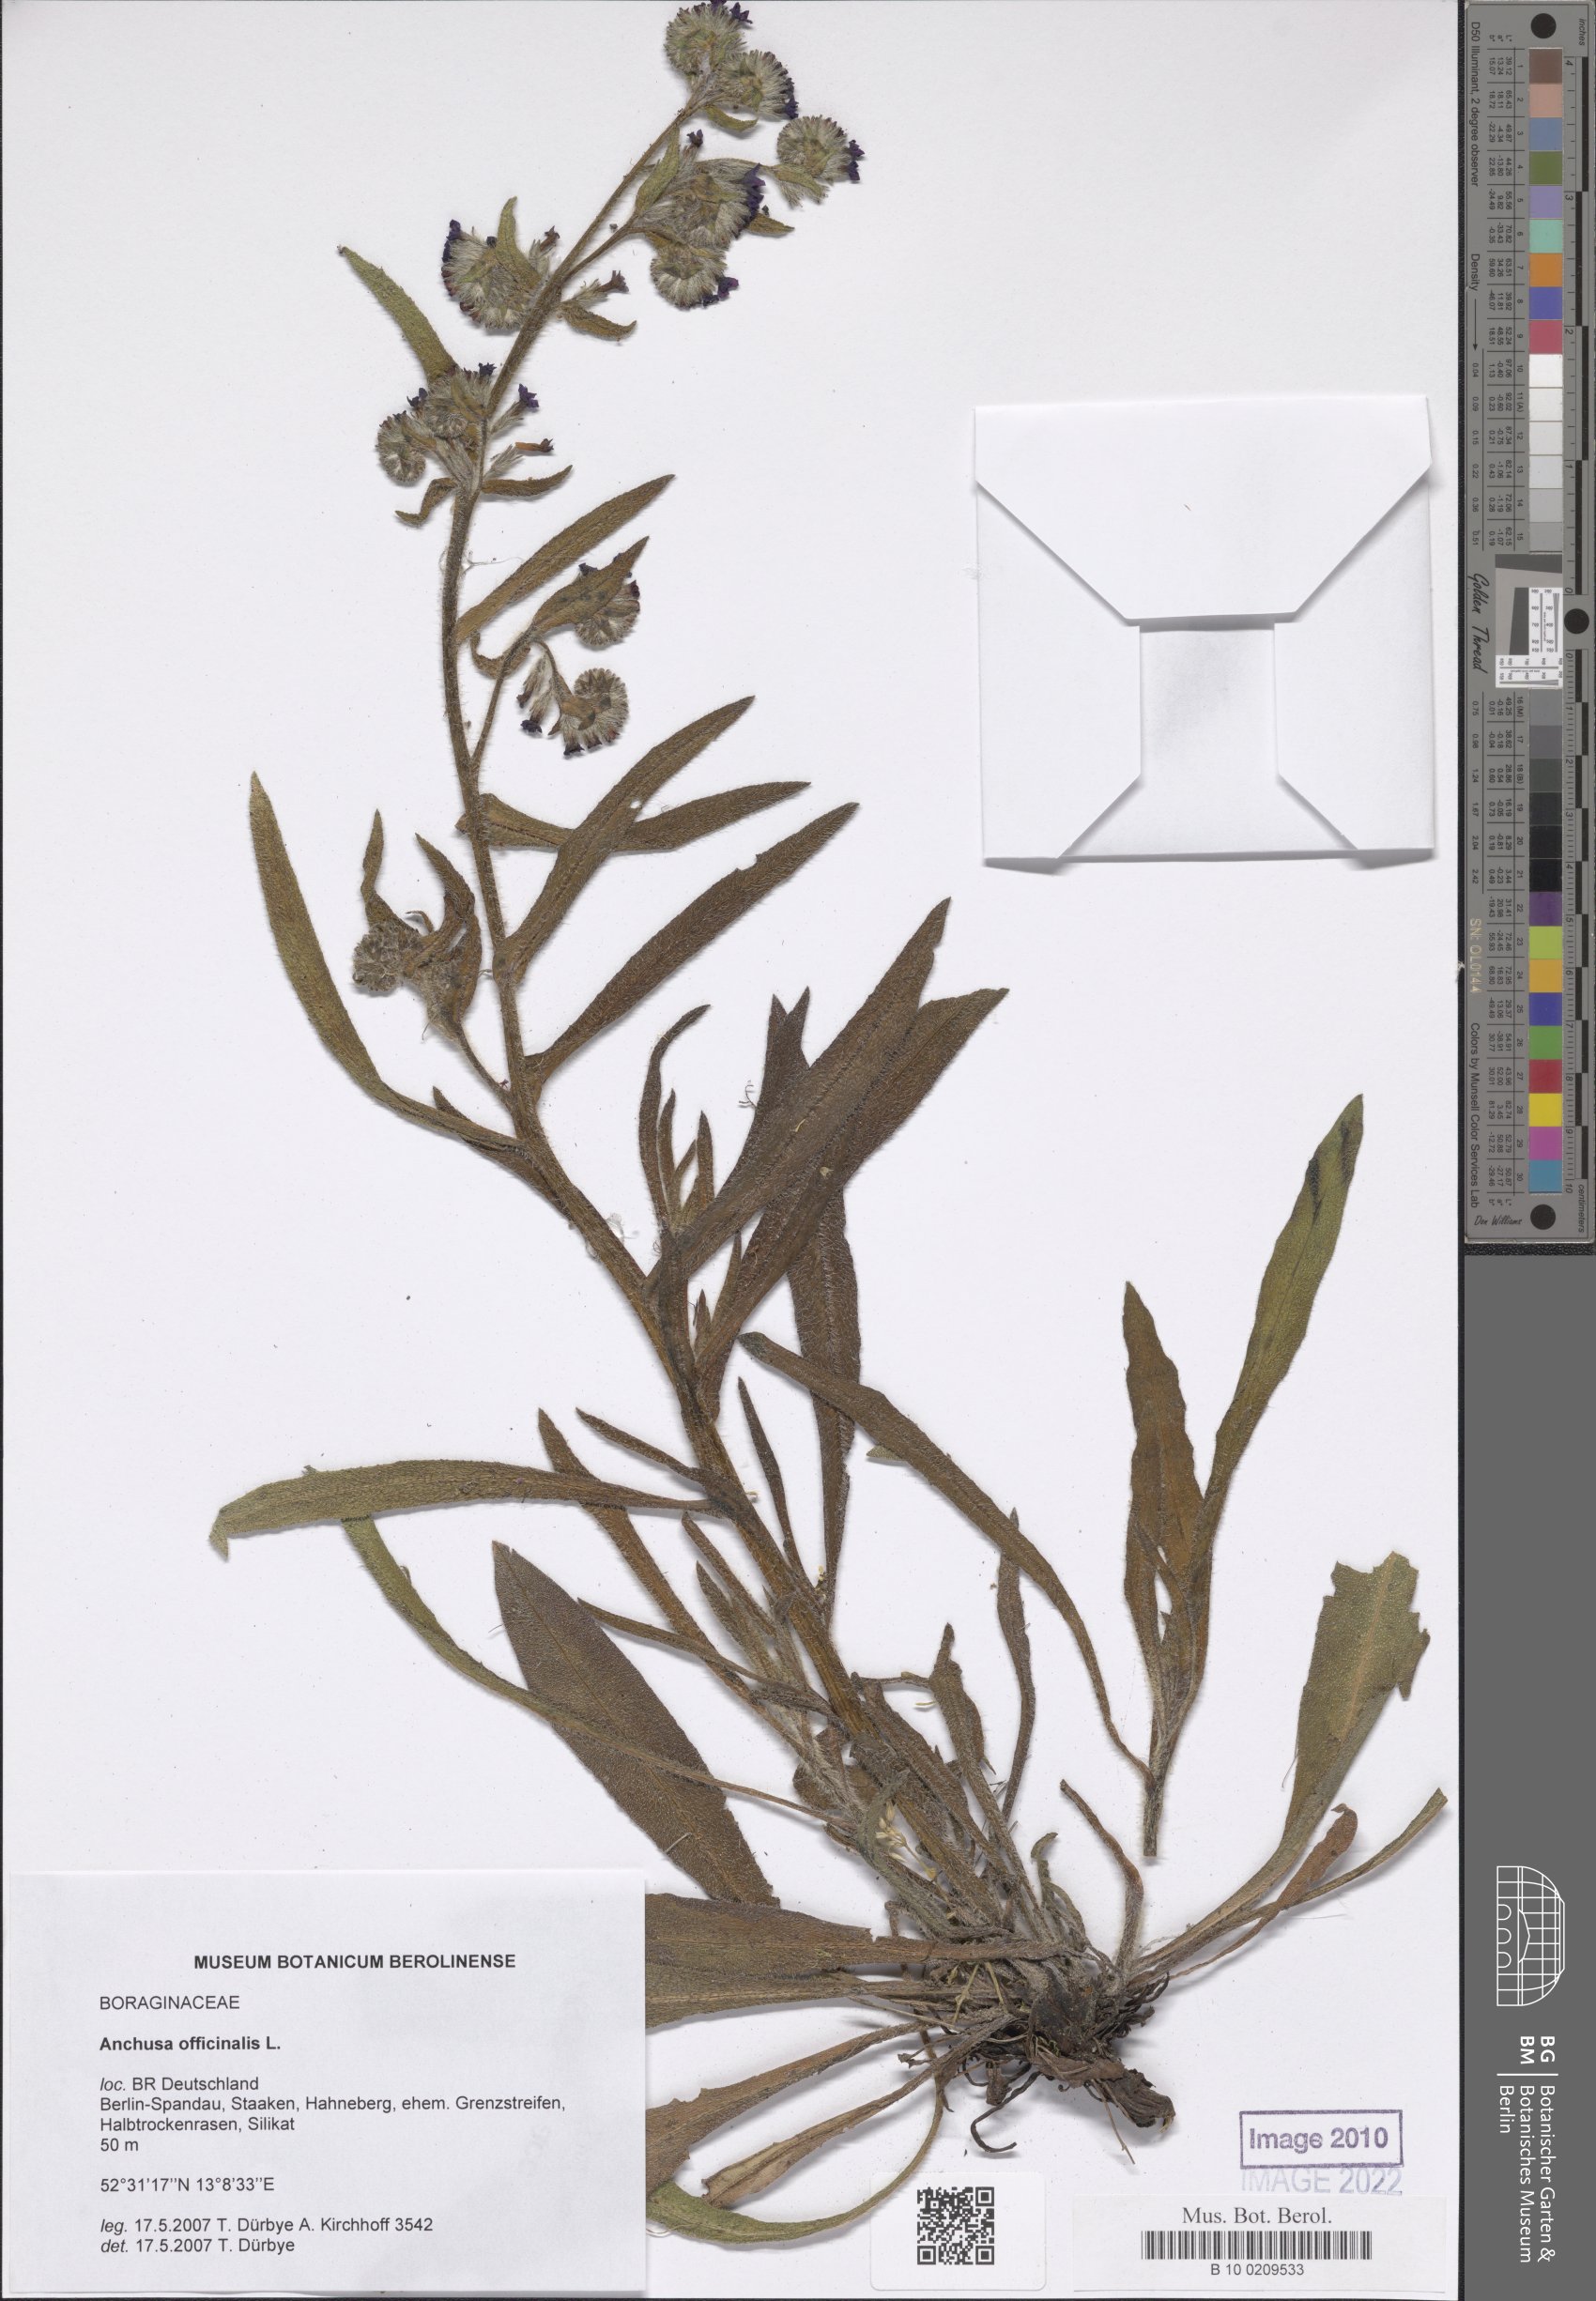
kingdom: Plantae
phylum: Tracheophyta
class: Magnoliopsida
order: Boraginales
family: Boraginaceae
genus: Anchusa
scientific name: Anchusa officinalis
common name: Alkanet
